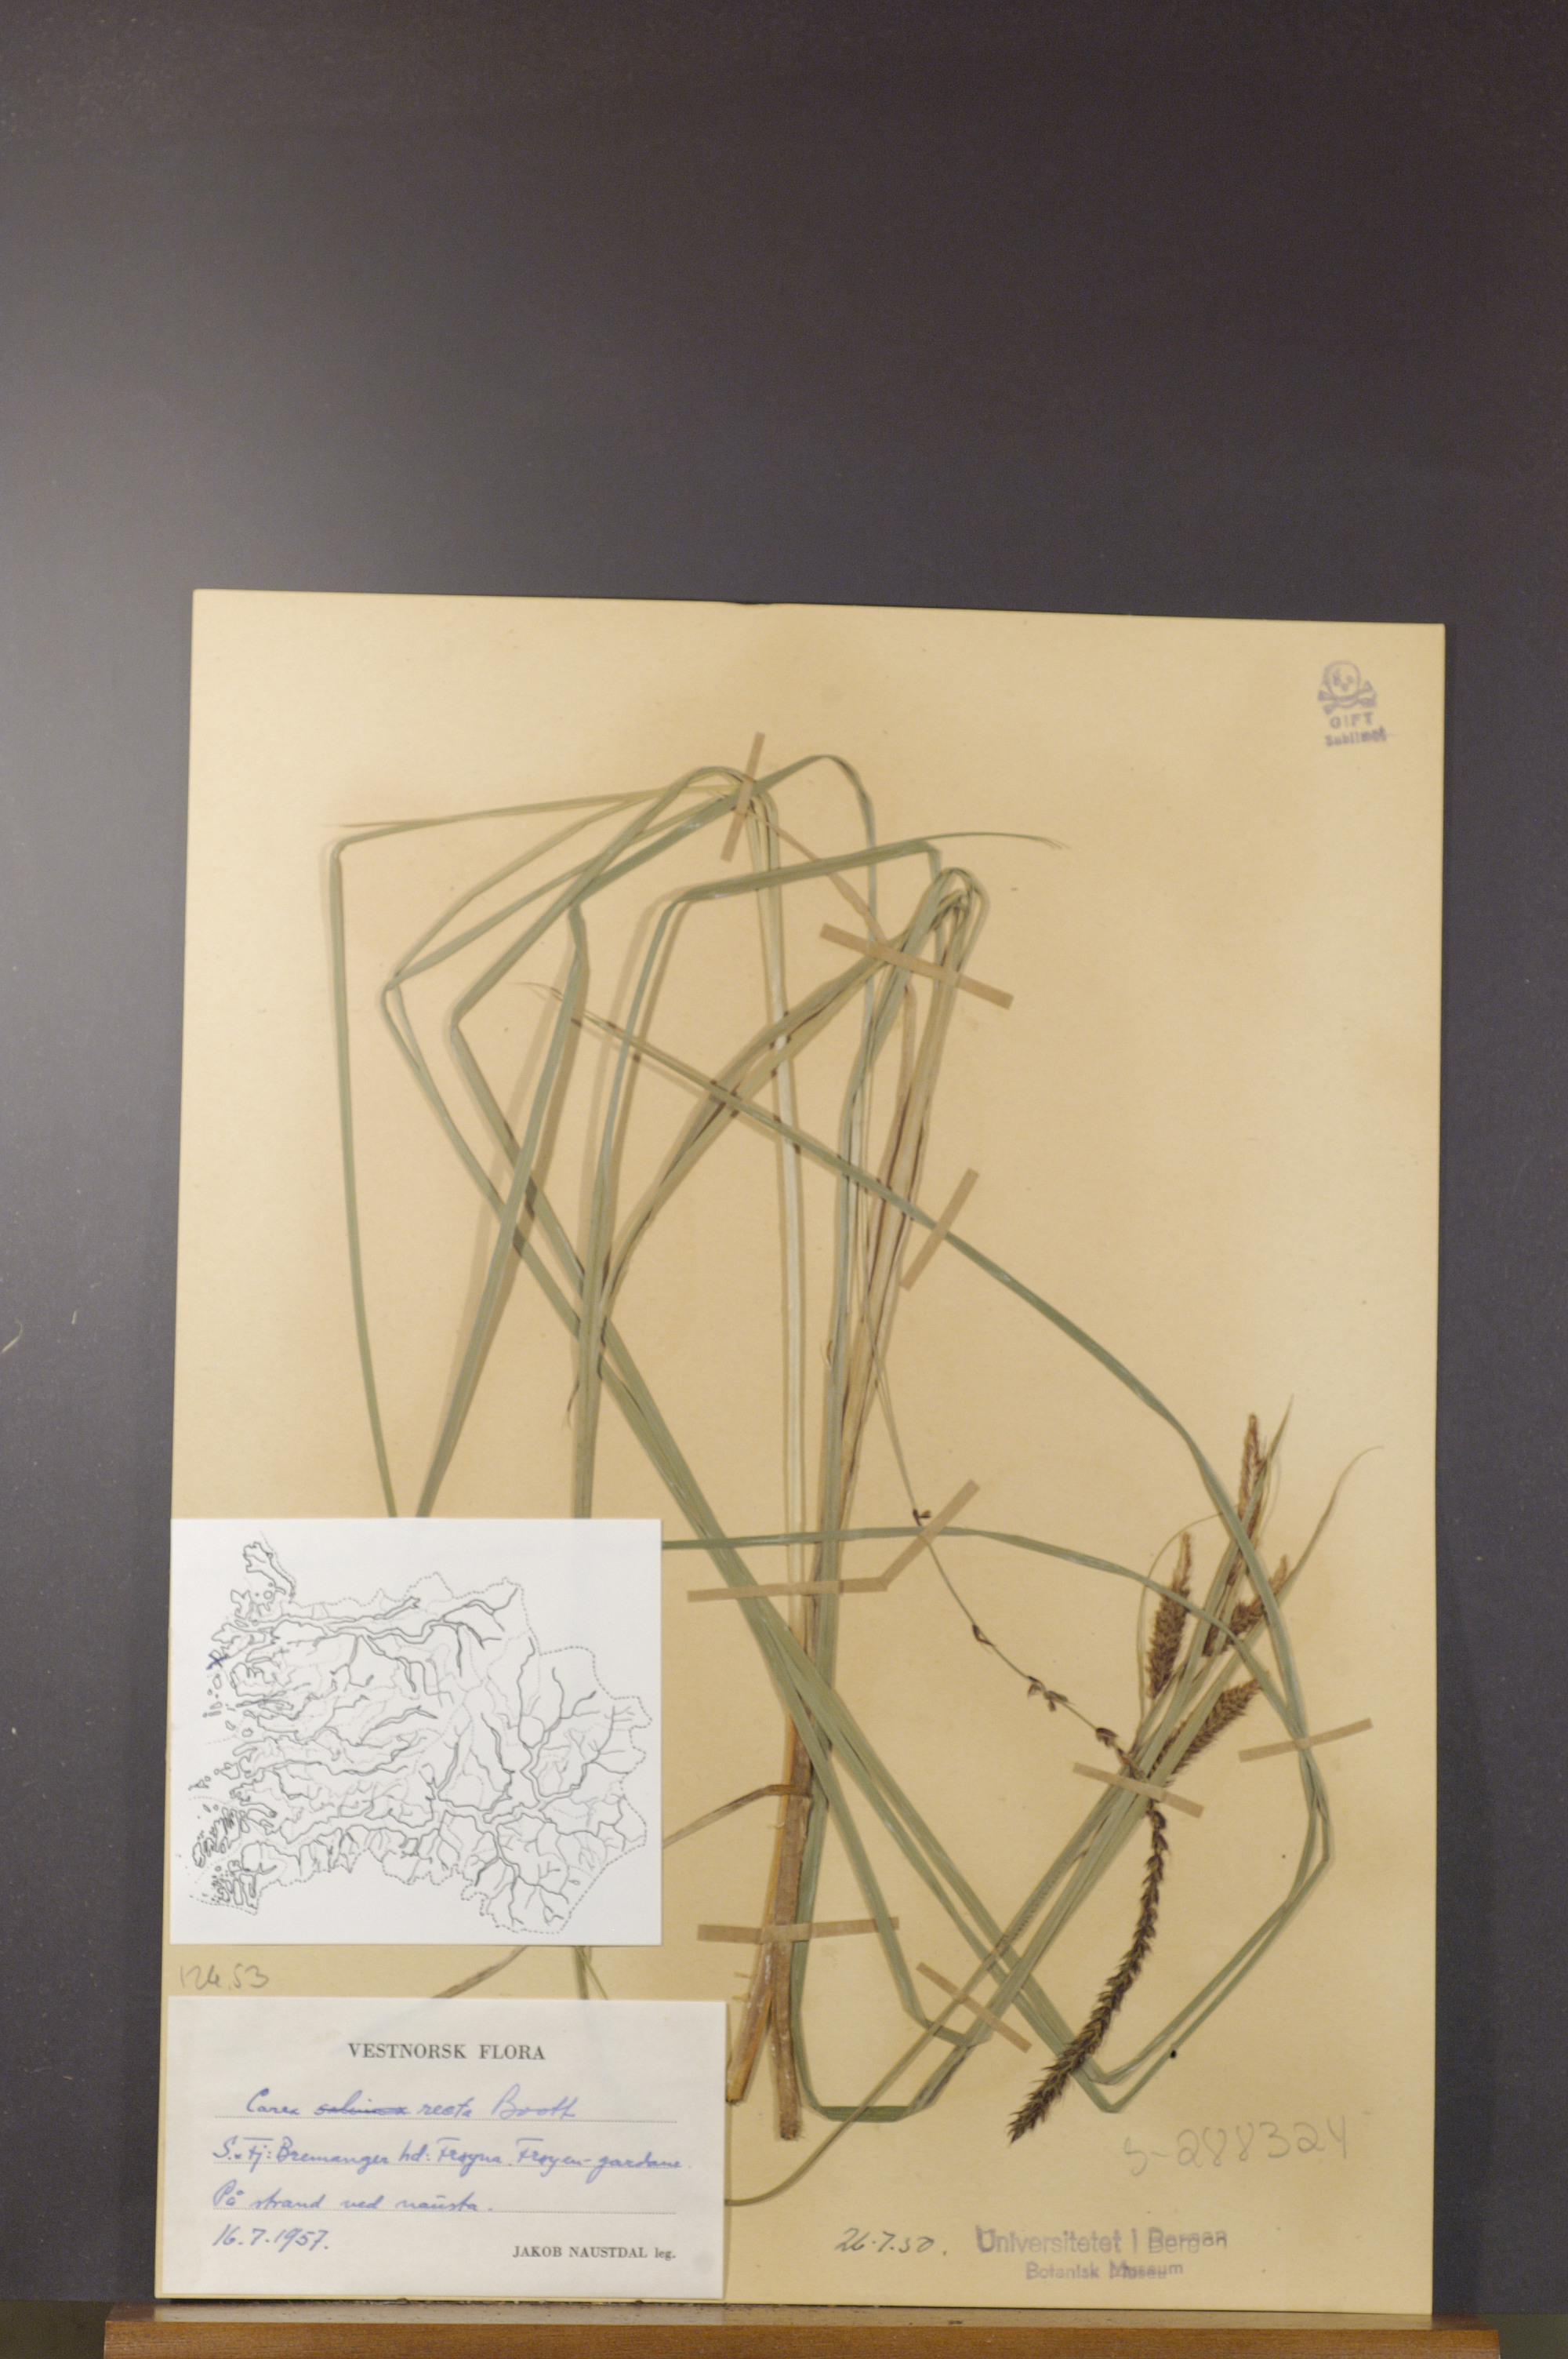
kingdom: Plantae
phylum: Tracheophyta
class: Liliopsida
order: Poales
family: Cyperaceae
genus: Carex
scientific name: Carex recta
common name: Estuarine sedge
